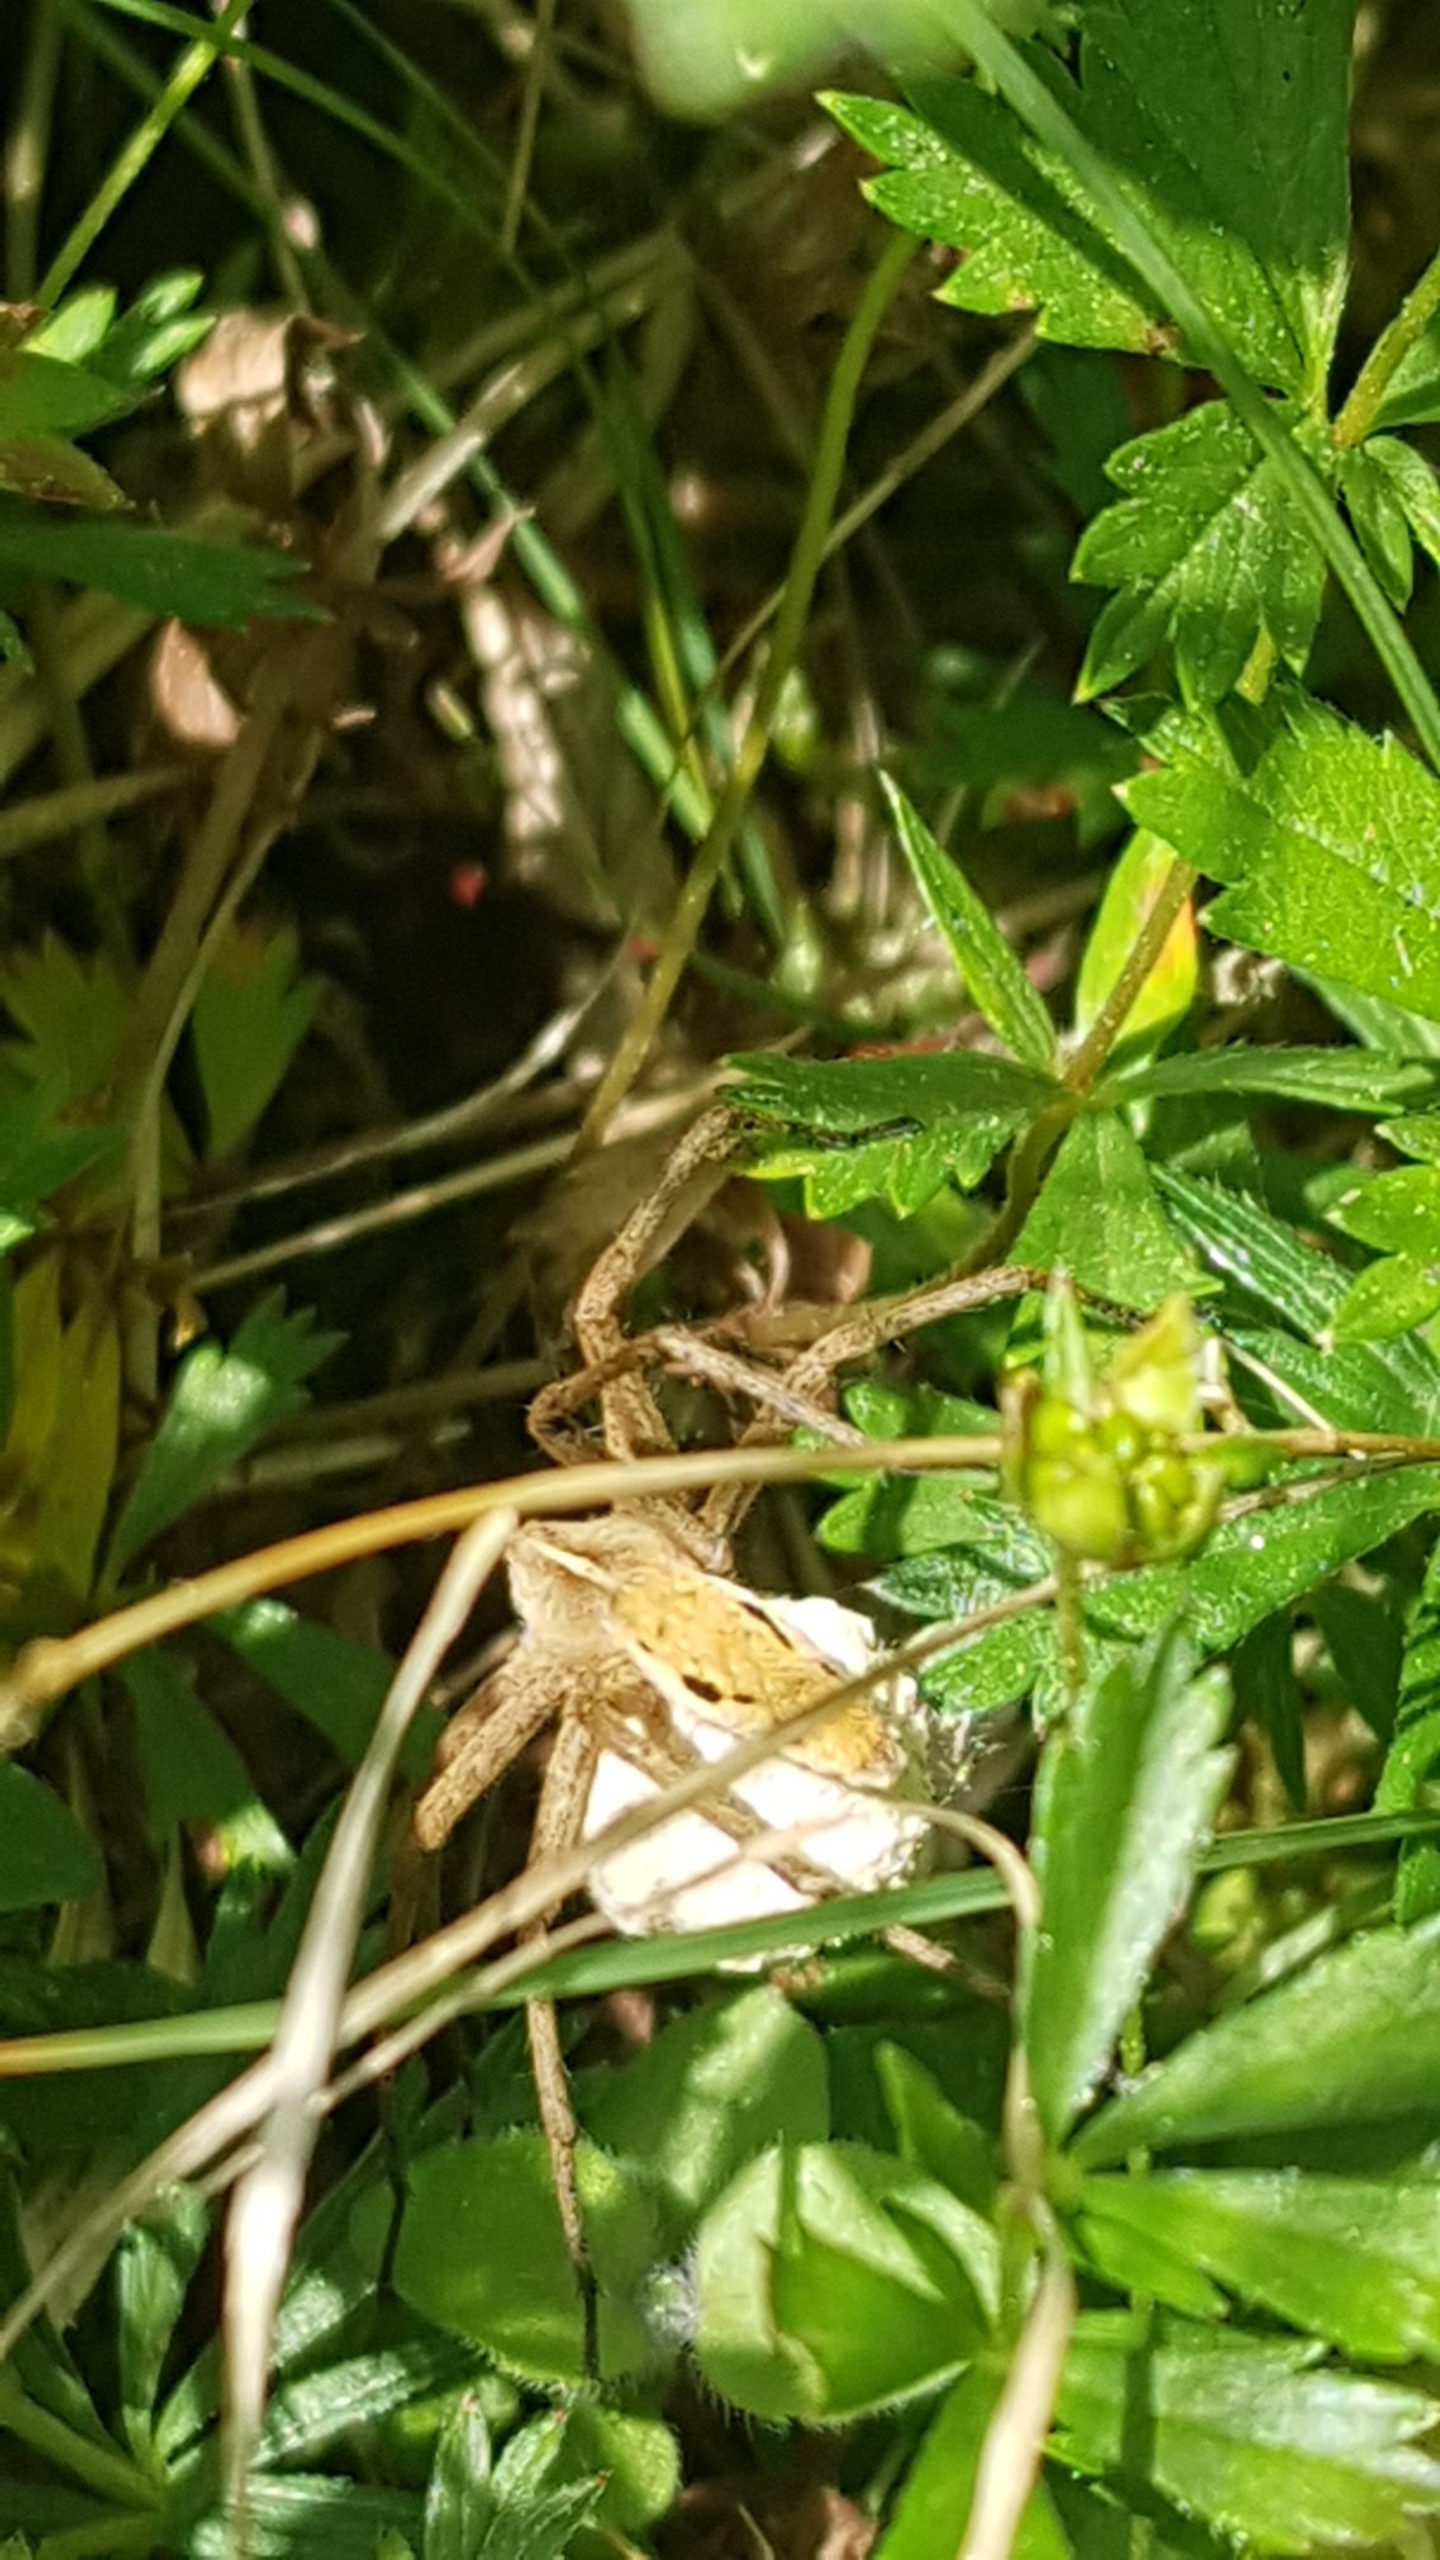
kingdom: Animalia
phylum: Arthropoda
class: Arachnida
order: Araneae
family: Pisauridae
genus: Pisaura
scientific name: Pisaura mirabilis
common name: Almindelig rovedderkop
